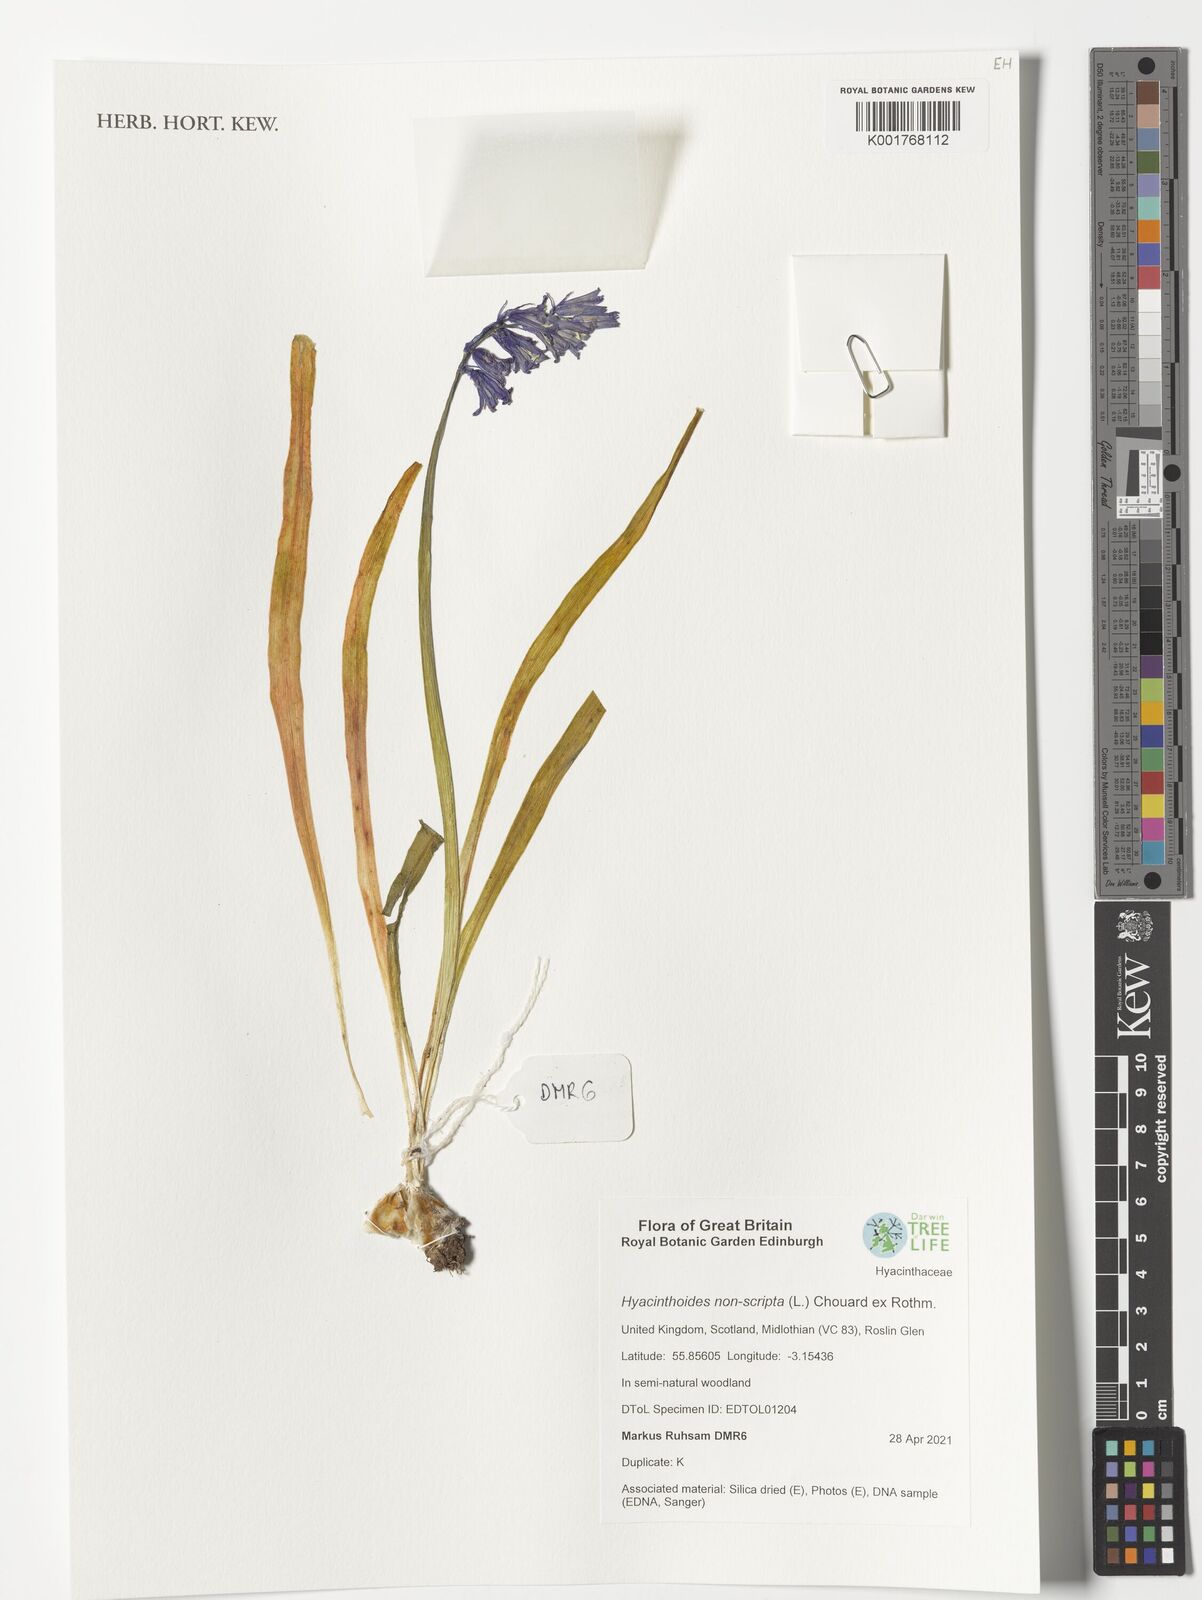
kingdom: Plantae
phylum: Tracheophyta
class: Liliopsida
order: Asparagales
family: Asparagaceae
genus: Hyacinthoides
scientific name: Hyacinthoides non-scripta
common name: Bluebell
